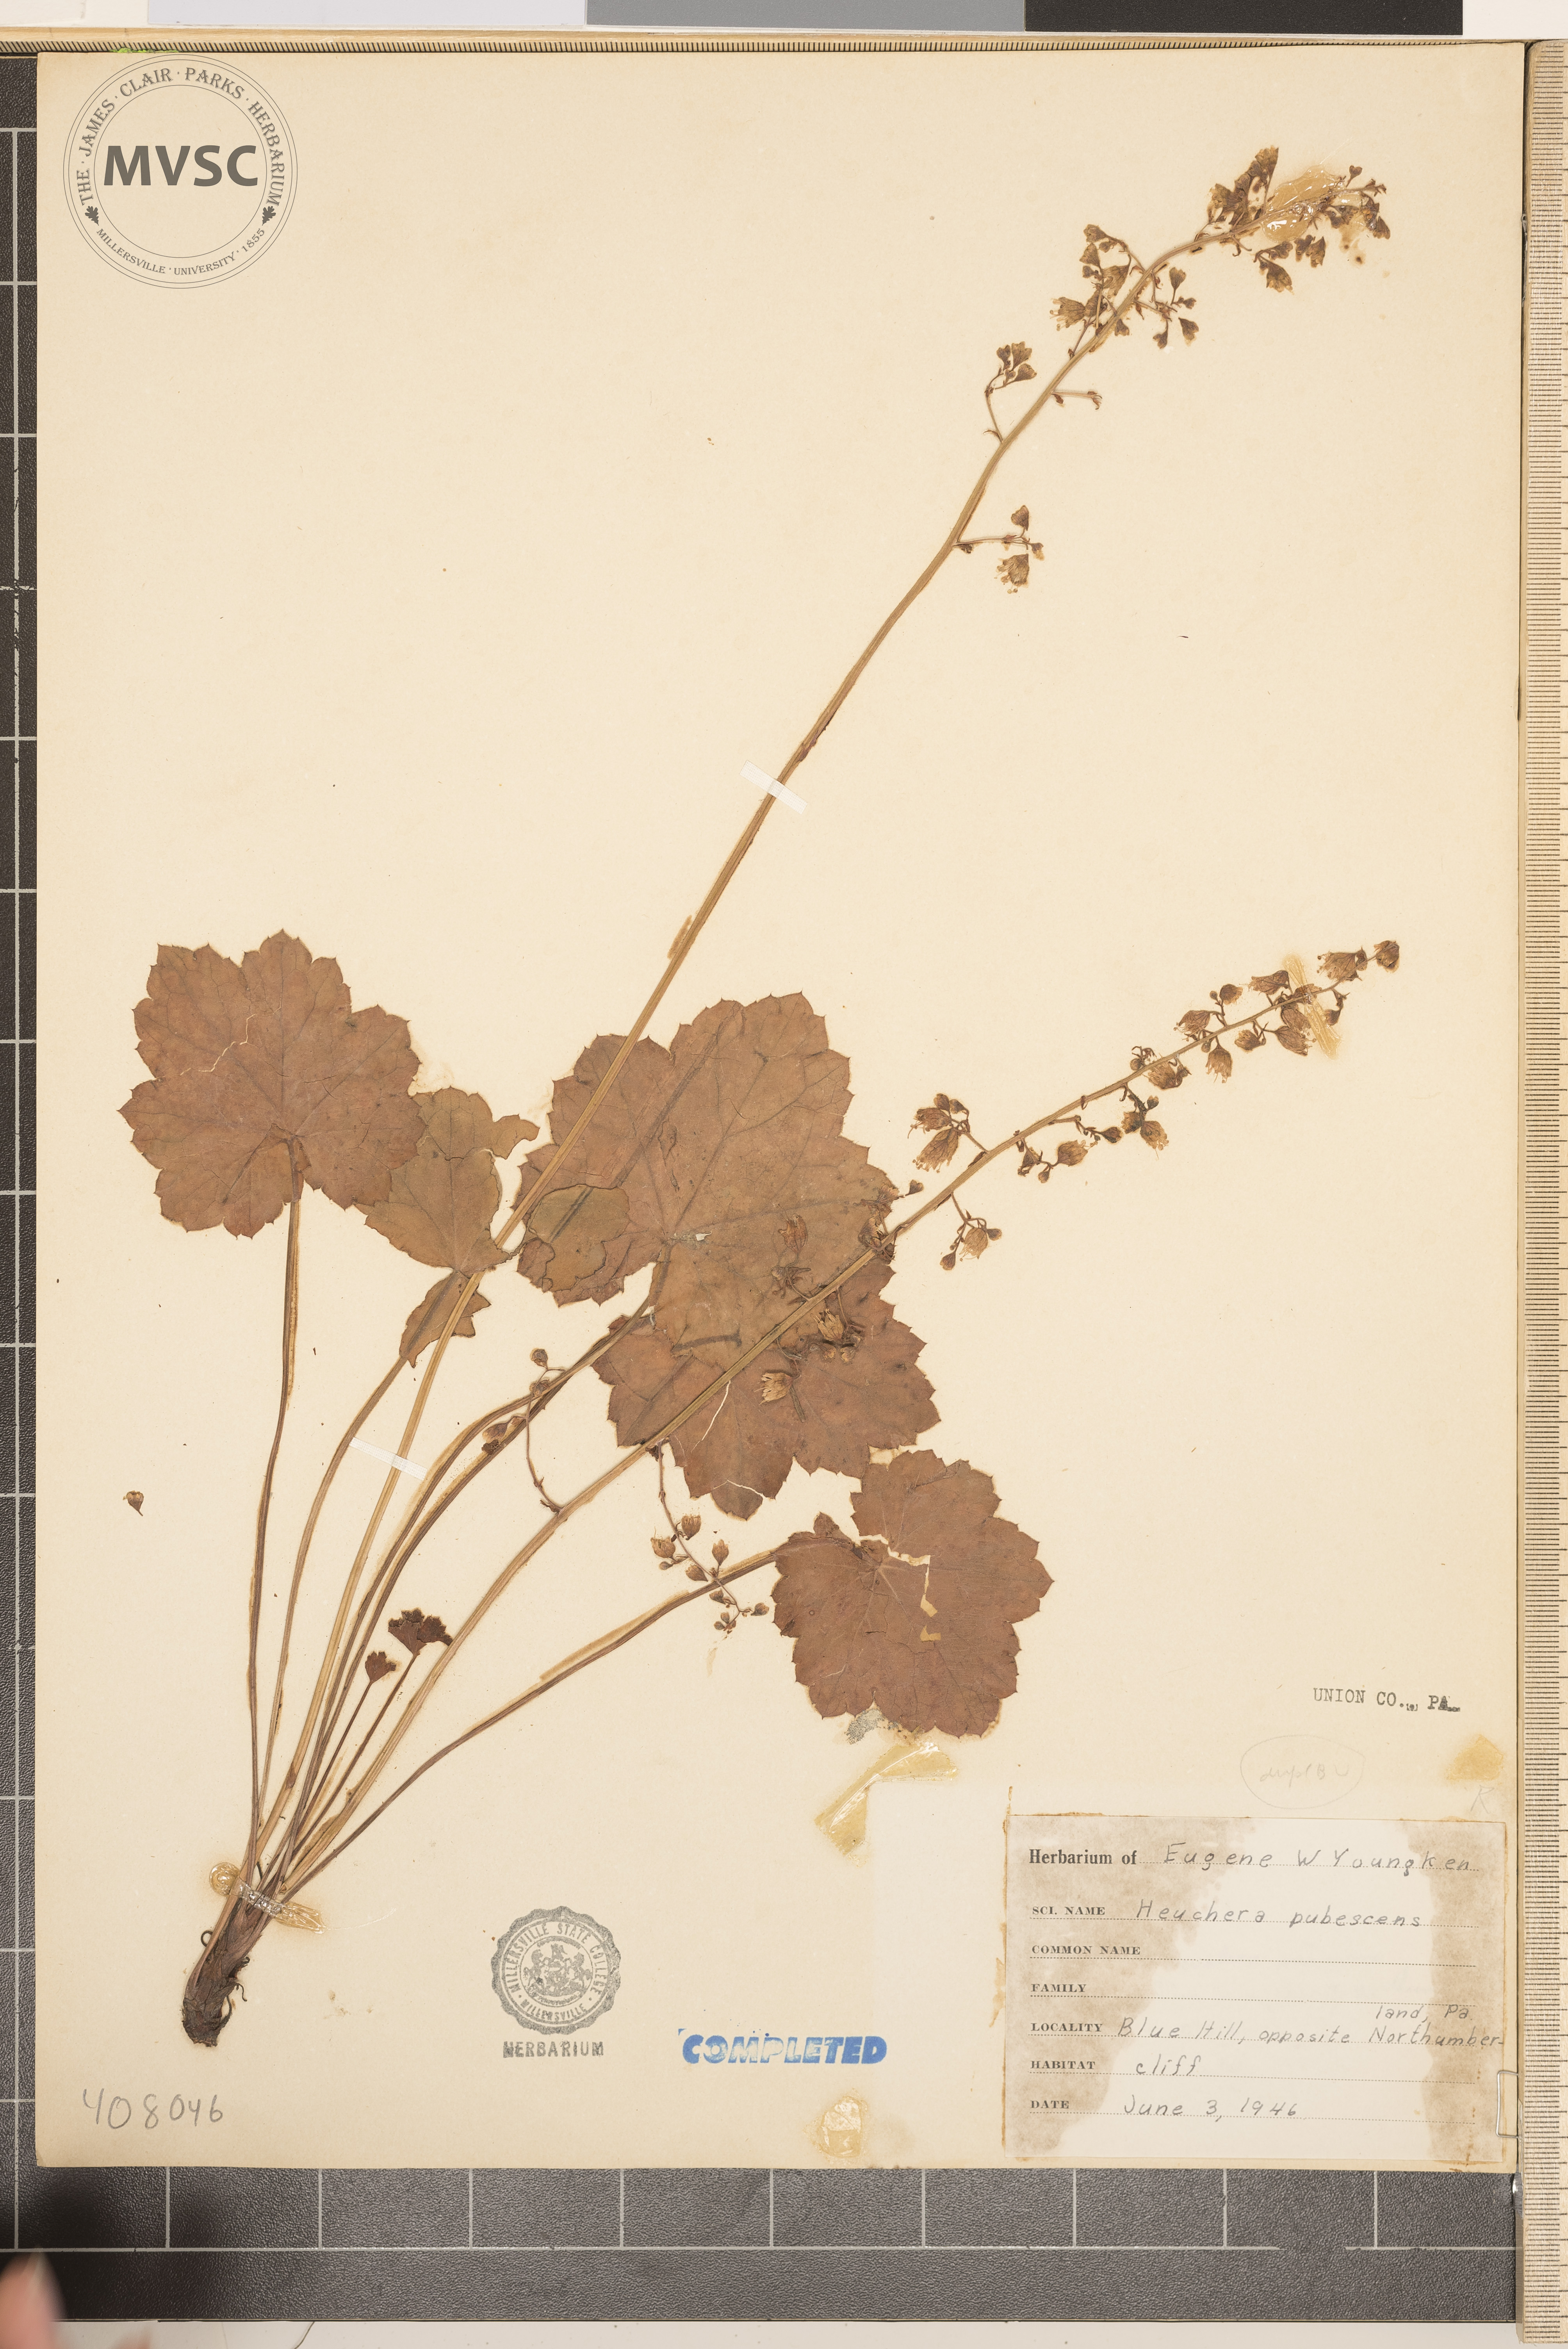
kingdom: Plantae
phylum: Tracheophyta
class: Magnoliopsida
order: Saxifragales
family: Saxifragaceae
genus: Heuchera
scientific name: Heuchera alba
